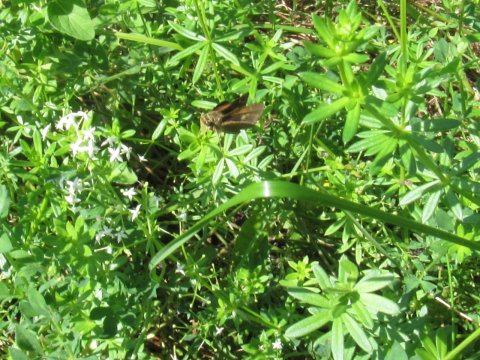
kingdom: Animalia
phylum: Arthropoda
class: Insecta
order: Lepidoptera
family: Hesperiidae
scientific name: Hesperiidae
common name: Skippers
